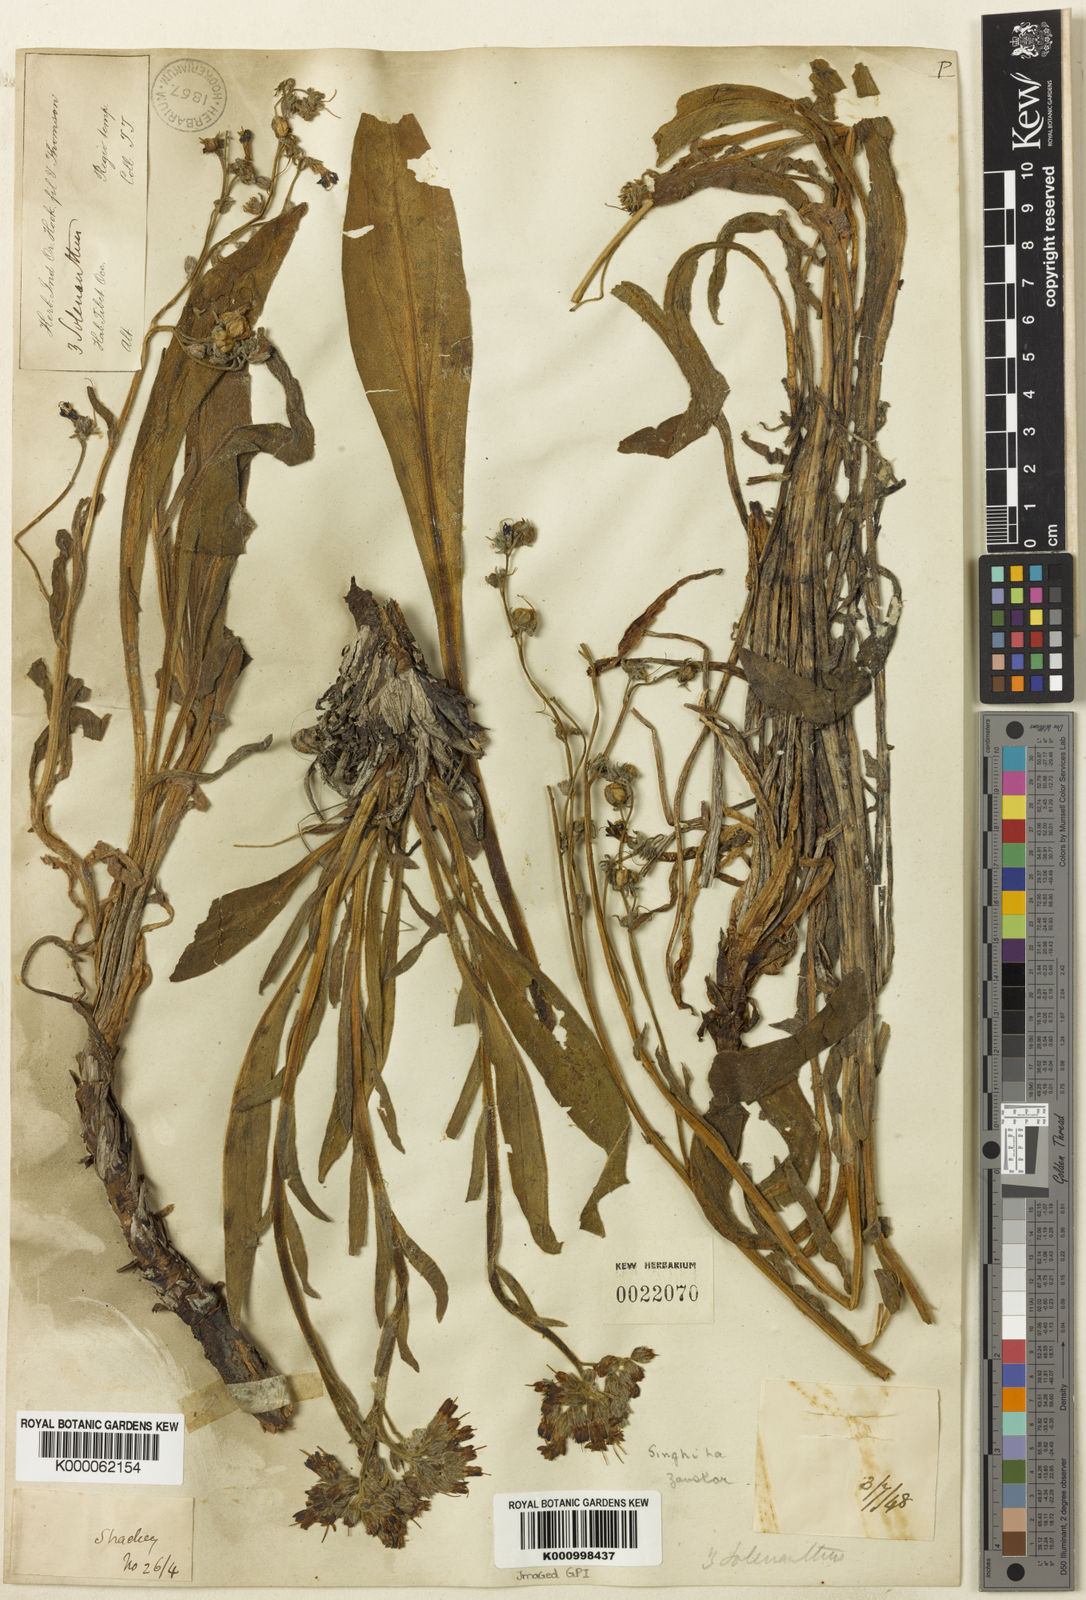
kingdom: Plantae
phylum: Tracheophyta
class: Magnoliopsida
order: Boraginales
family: Boraginaceae
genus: Lindelofia
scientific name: Lindelofia stylosa
